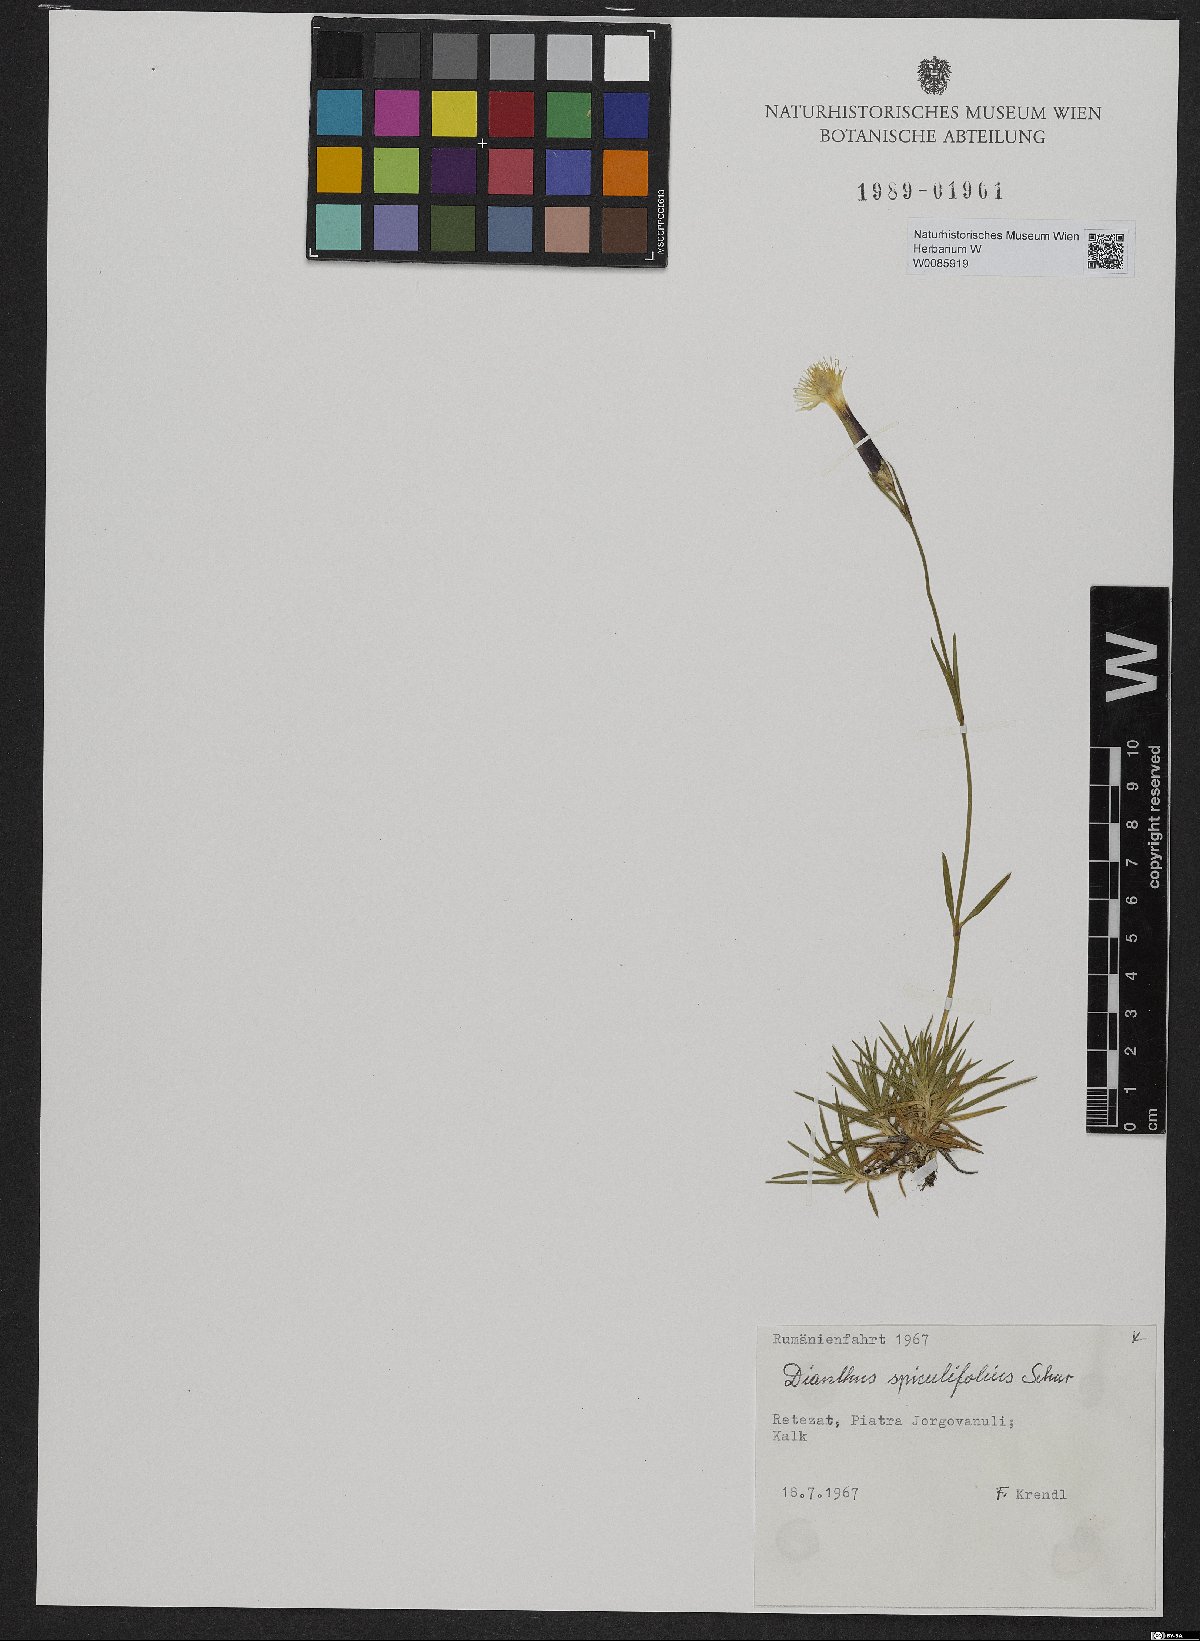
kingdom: Plantae
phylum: Tracheophyta
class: Magnoliopsida
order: Caryophyllales
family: Caryophyllaceae
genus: Dianthus
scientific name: Dianthus spiculifolius
